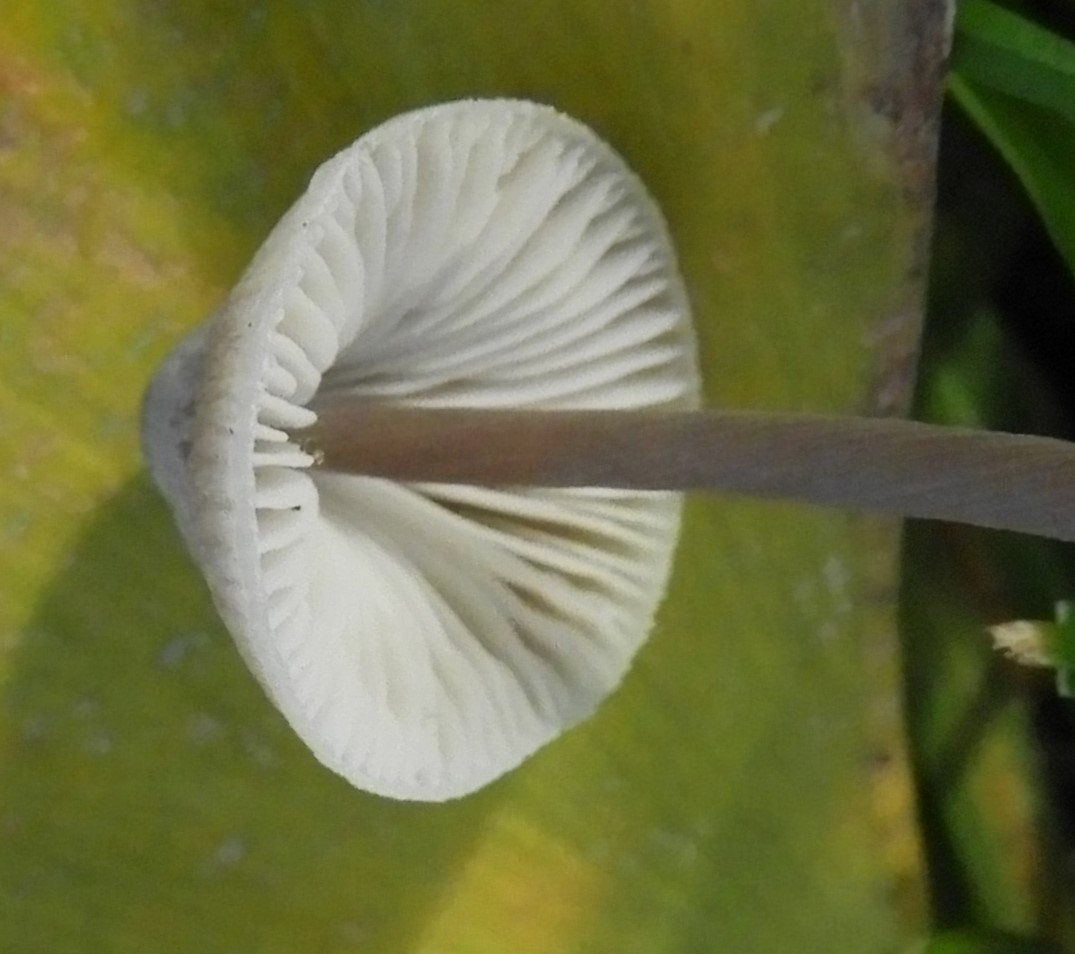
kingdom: Fungi
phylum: Basidiomycota
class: Agaricomycetes
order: Agaricales
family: Mycenaceae
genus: Mycena
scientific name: Mycena
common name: huesvamp
